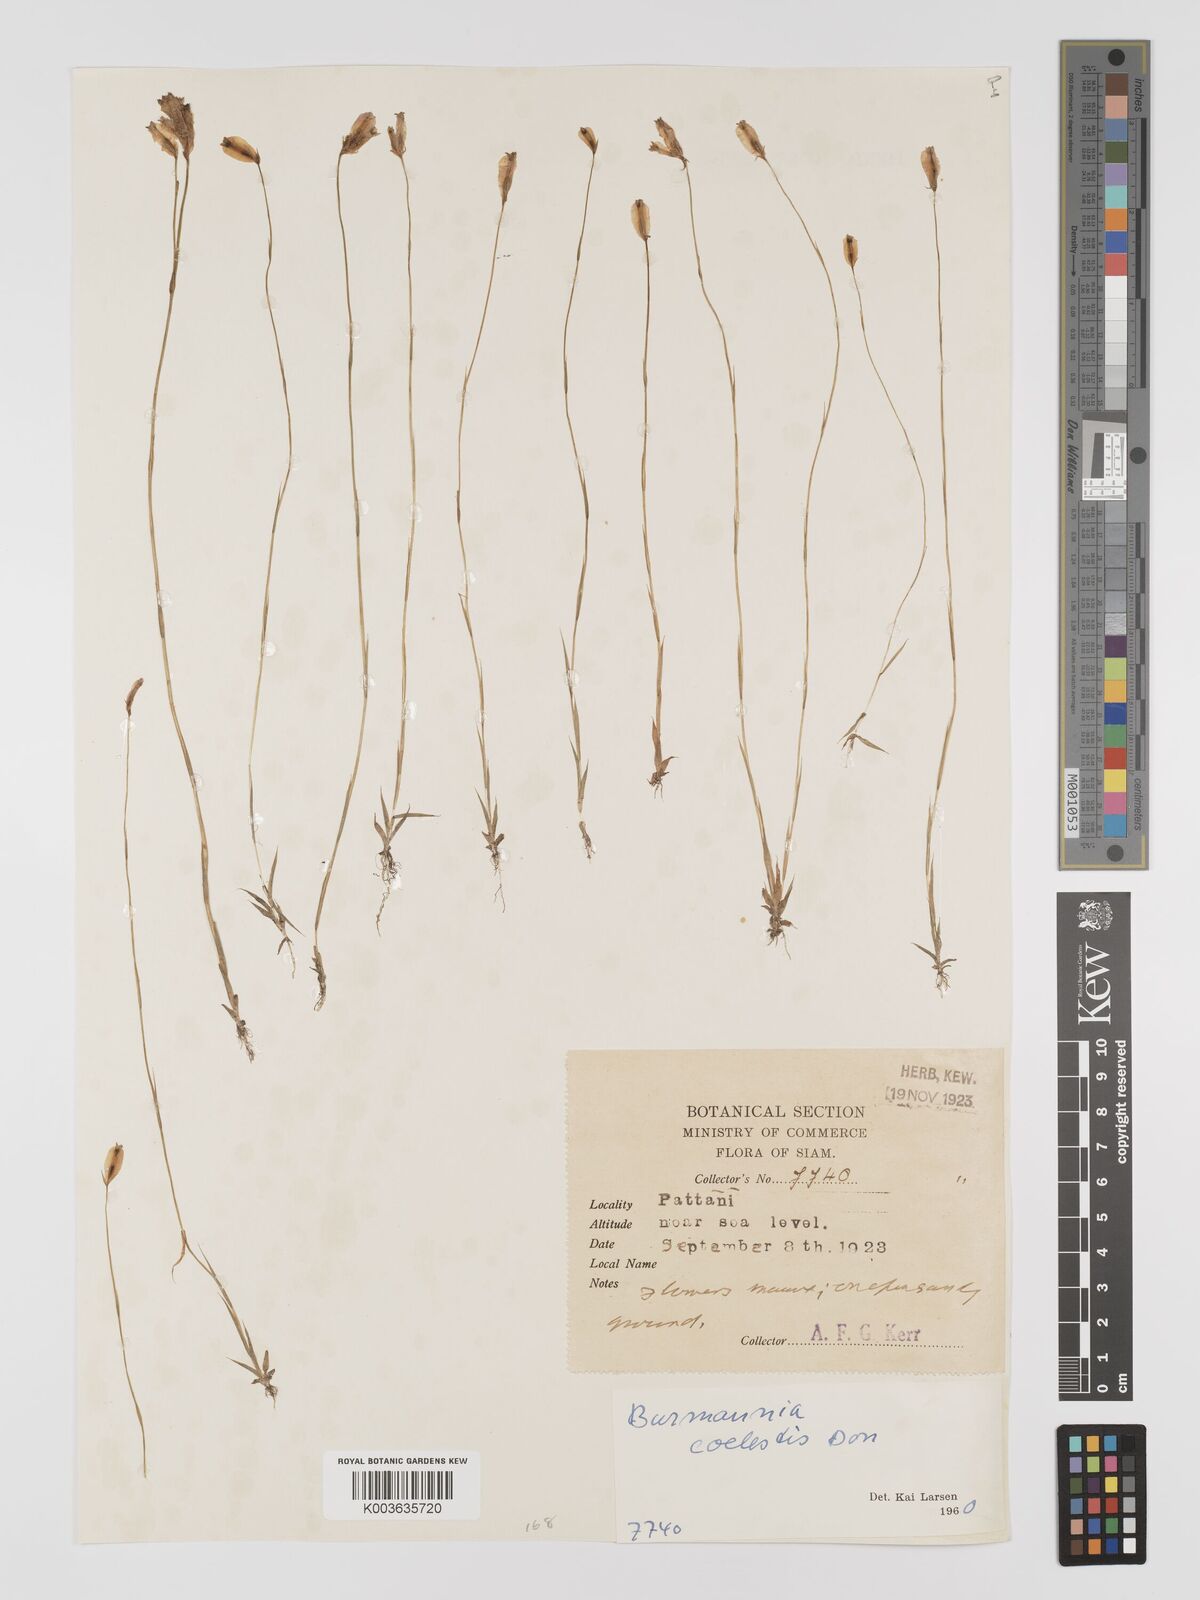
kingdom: Plantae
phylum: Tracheophyta
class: Liliopsida
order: Dioscoreales
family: Burmanniaceae
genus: Burmannia
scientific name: Burmannia coelestis
